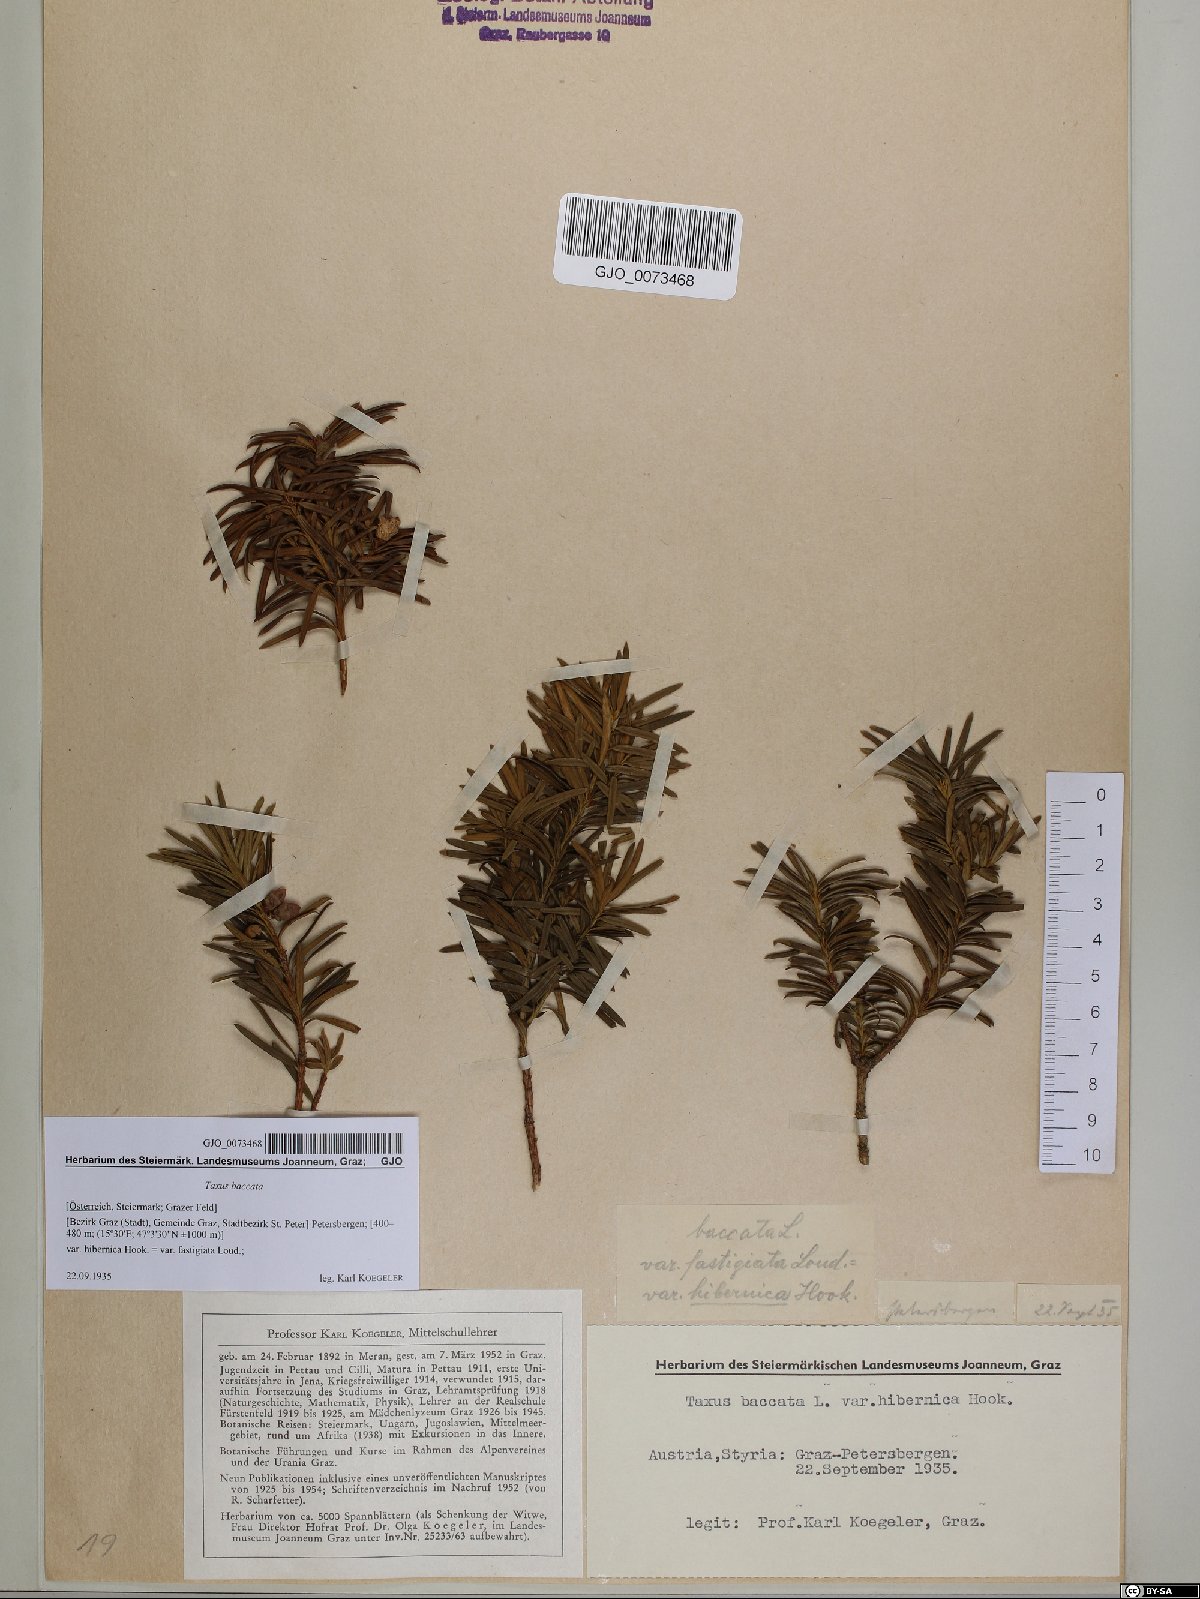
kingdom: Plantae
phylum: Tracheophyta
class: Pinopsida
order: Pinales
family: Taxaceae
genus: Taxus
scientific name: Taxus baccata
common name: Yew
